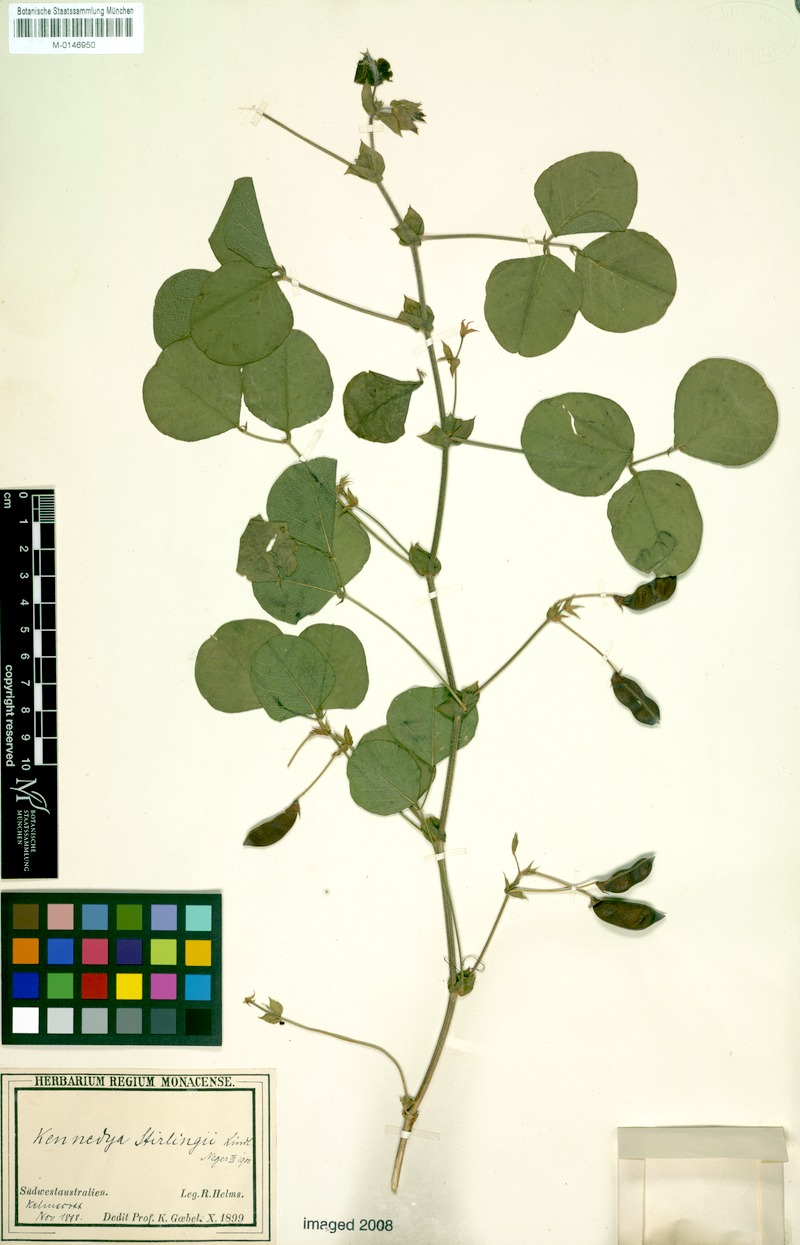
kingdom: Plantae
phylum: Tracheophyta
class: Magnoliopsida
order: Fabales
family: Fabaceae
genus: Kennedia
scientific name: Kennedia stirlingii
